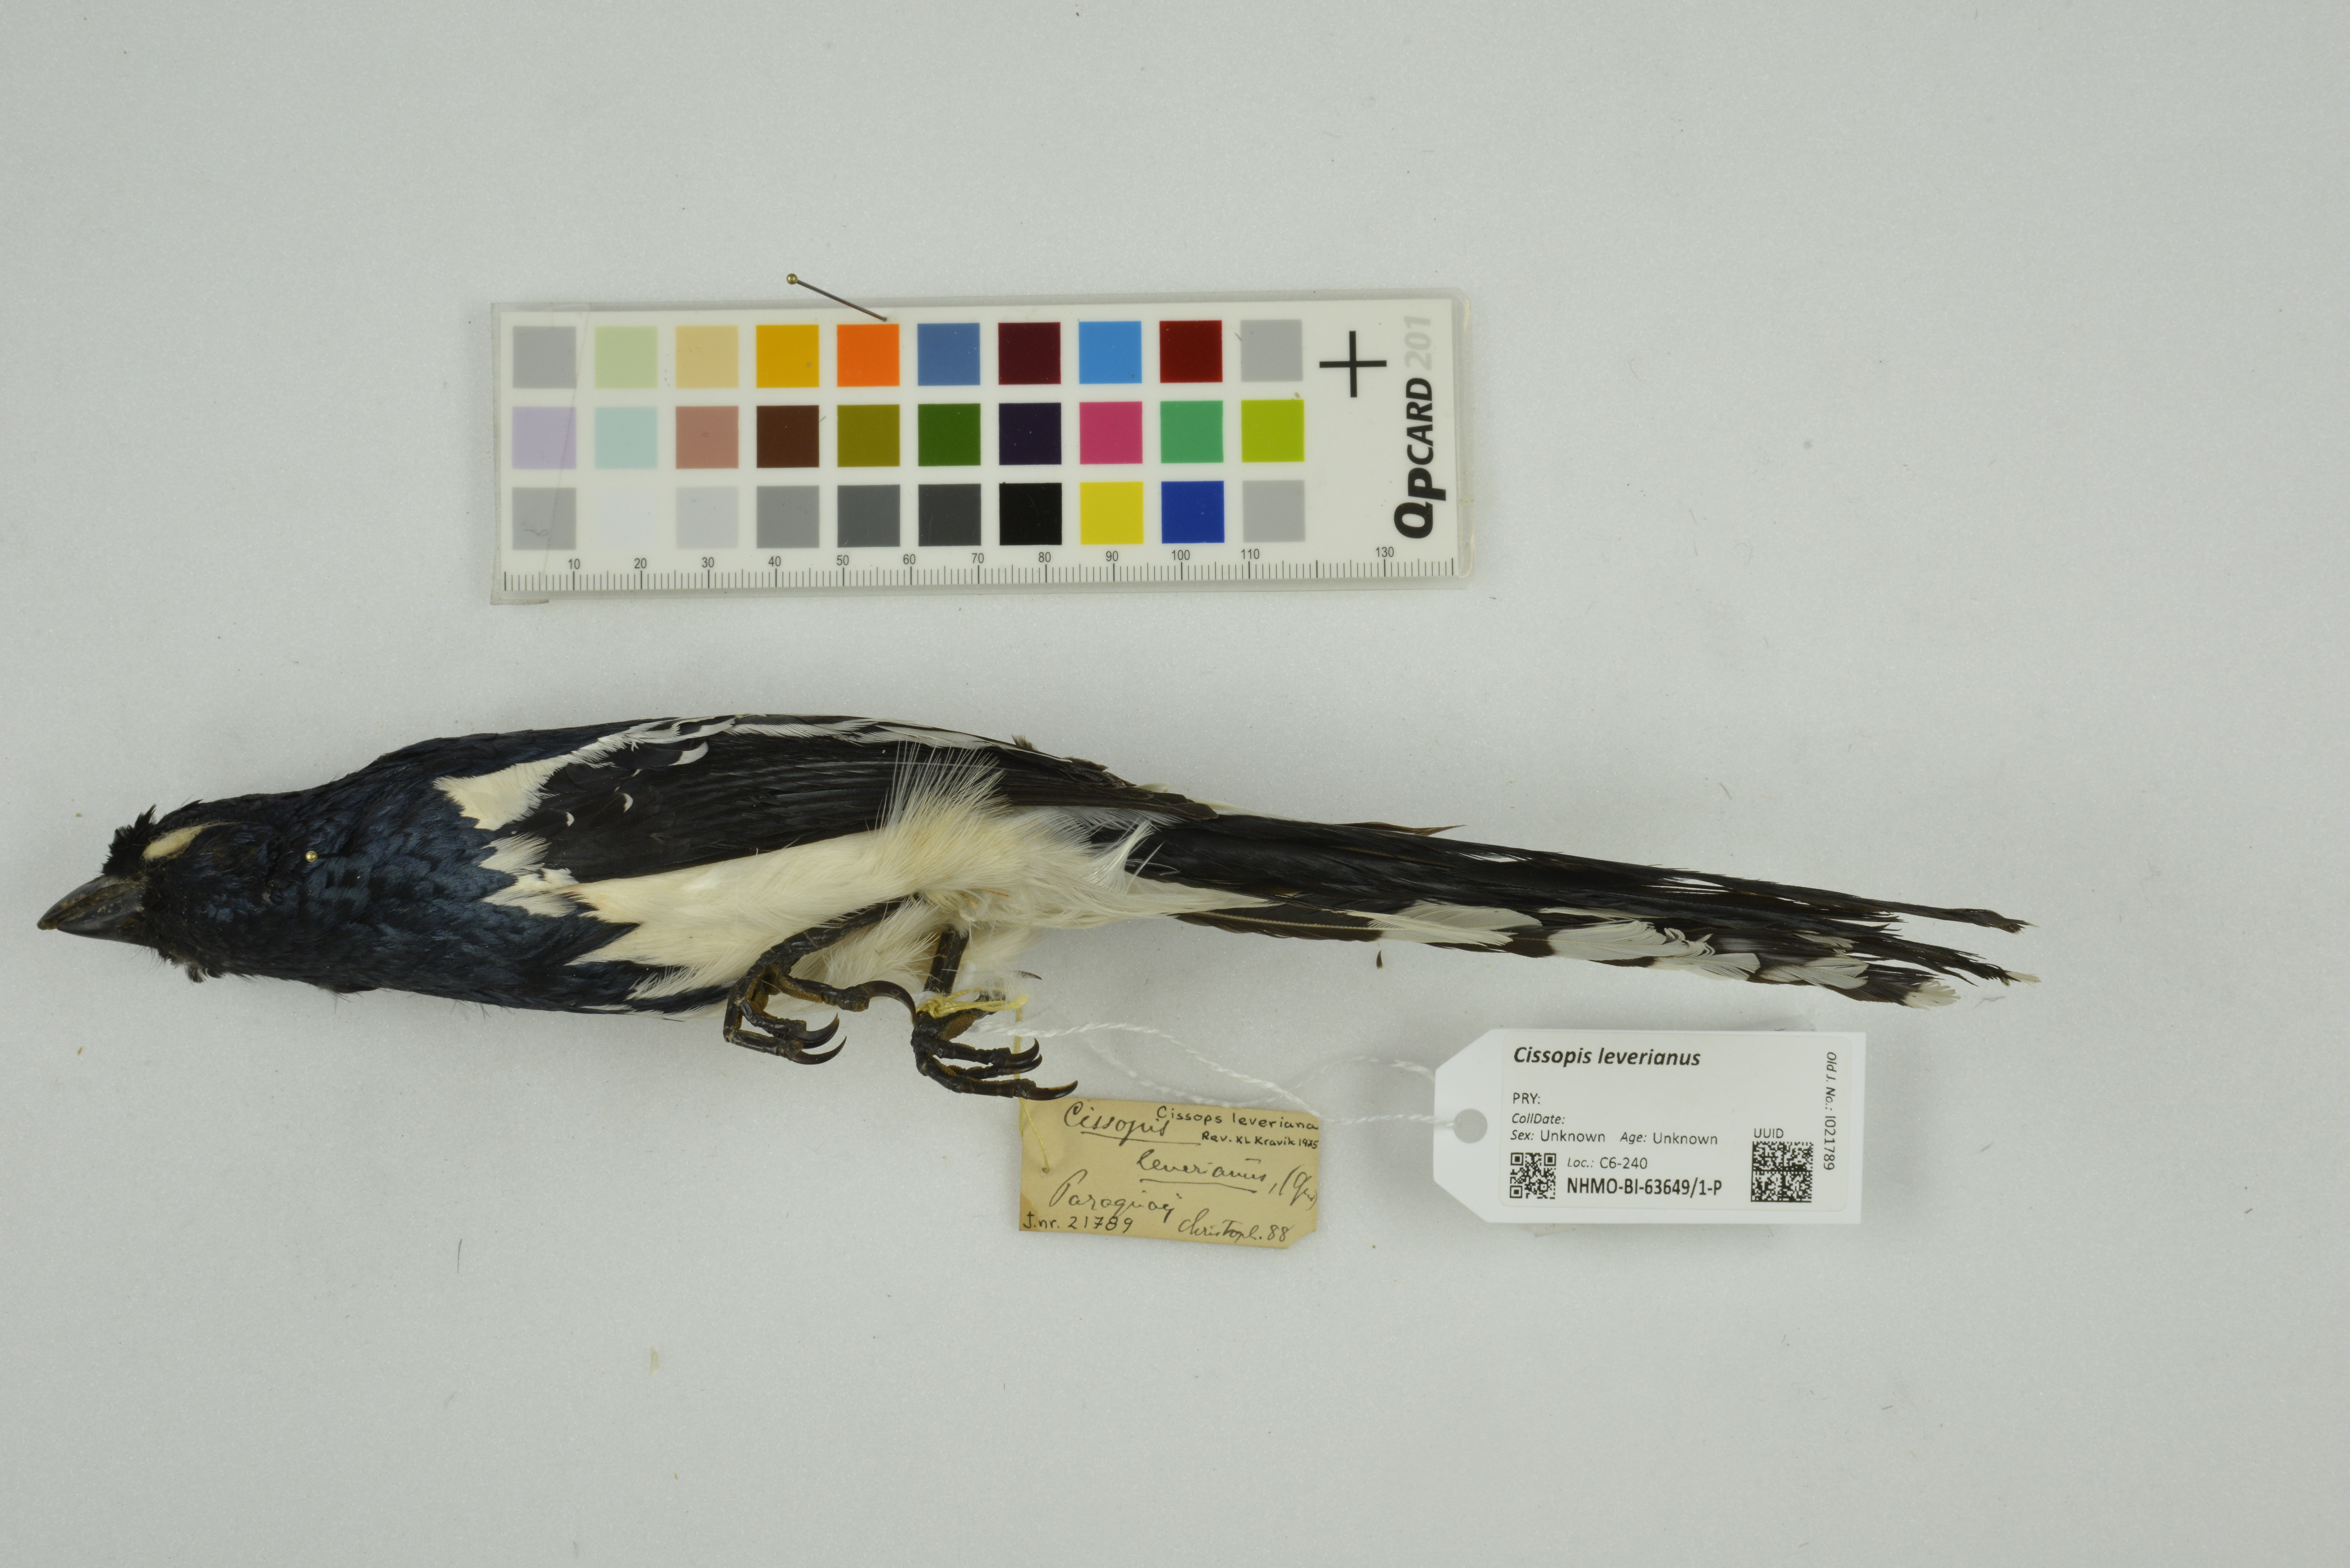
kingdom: Animalia
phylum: Chordata
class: Aves
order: Passeriformes
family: Thraupidae
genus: Cissopis
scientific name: Cissopis leverianus
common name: Magpie tanager
